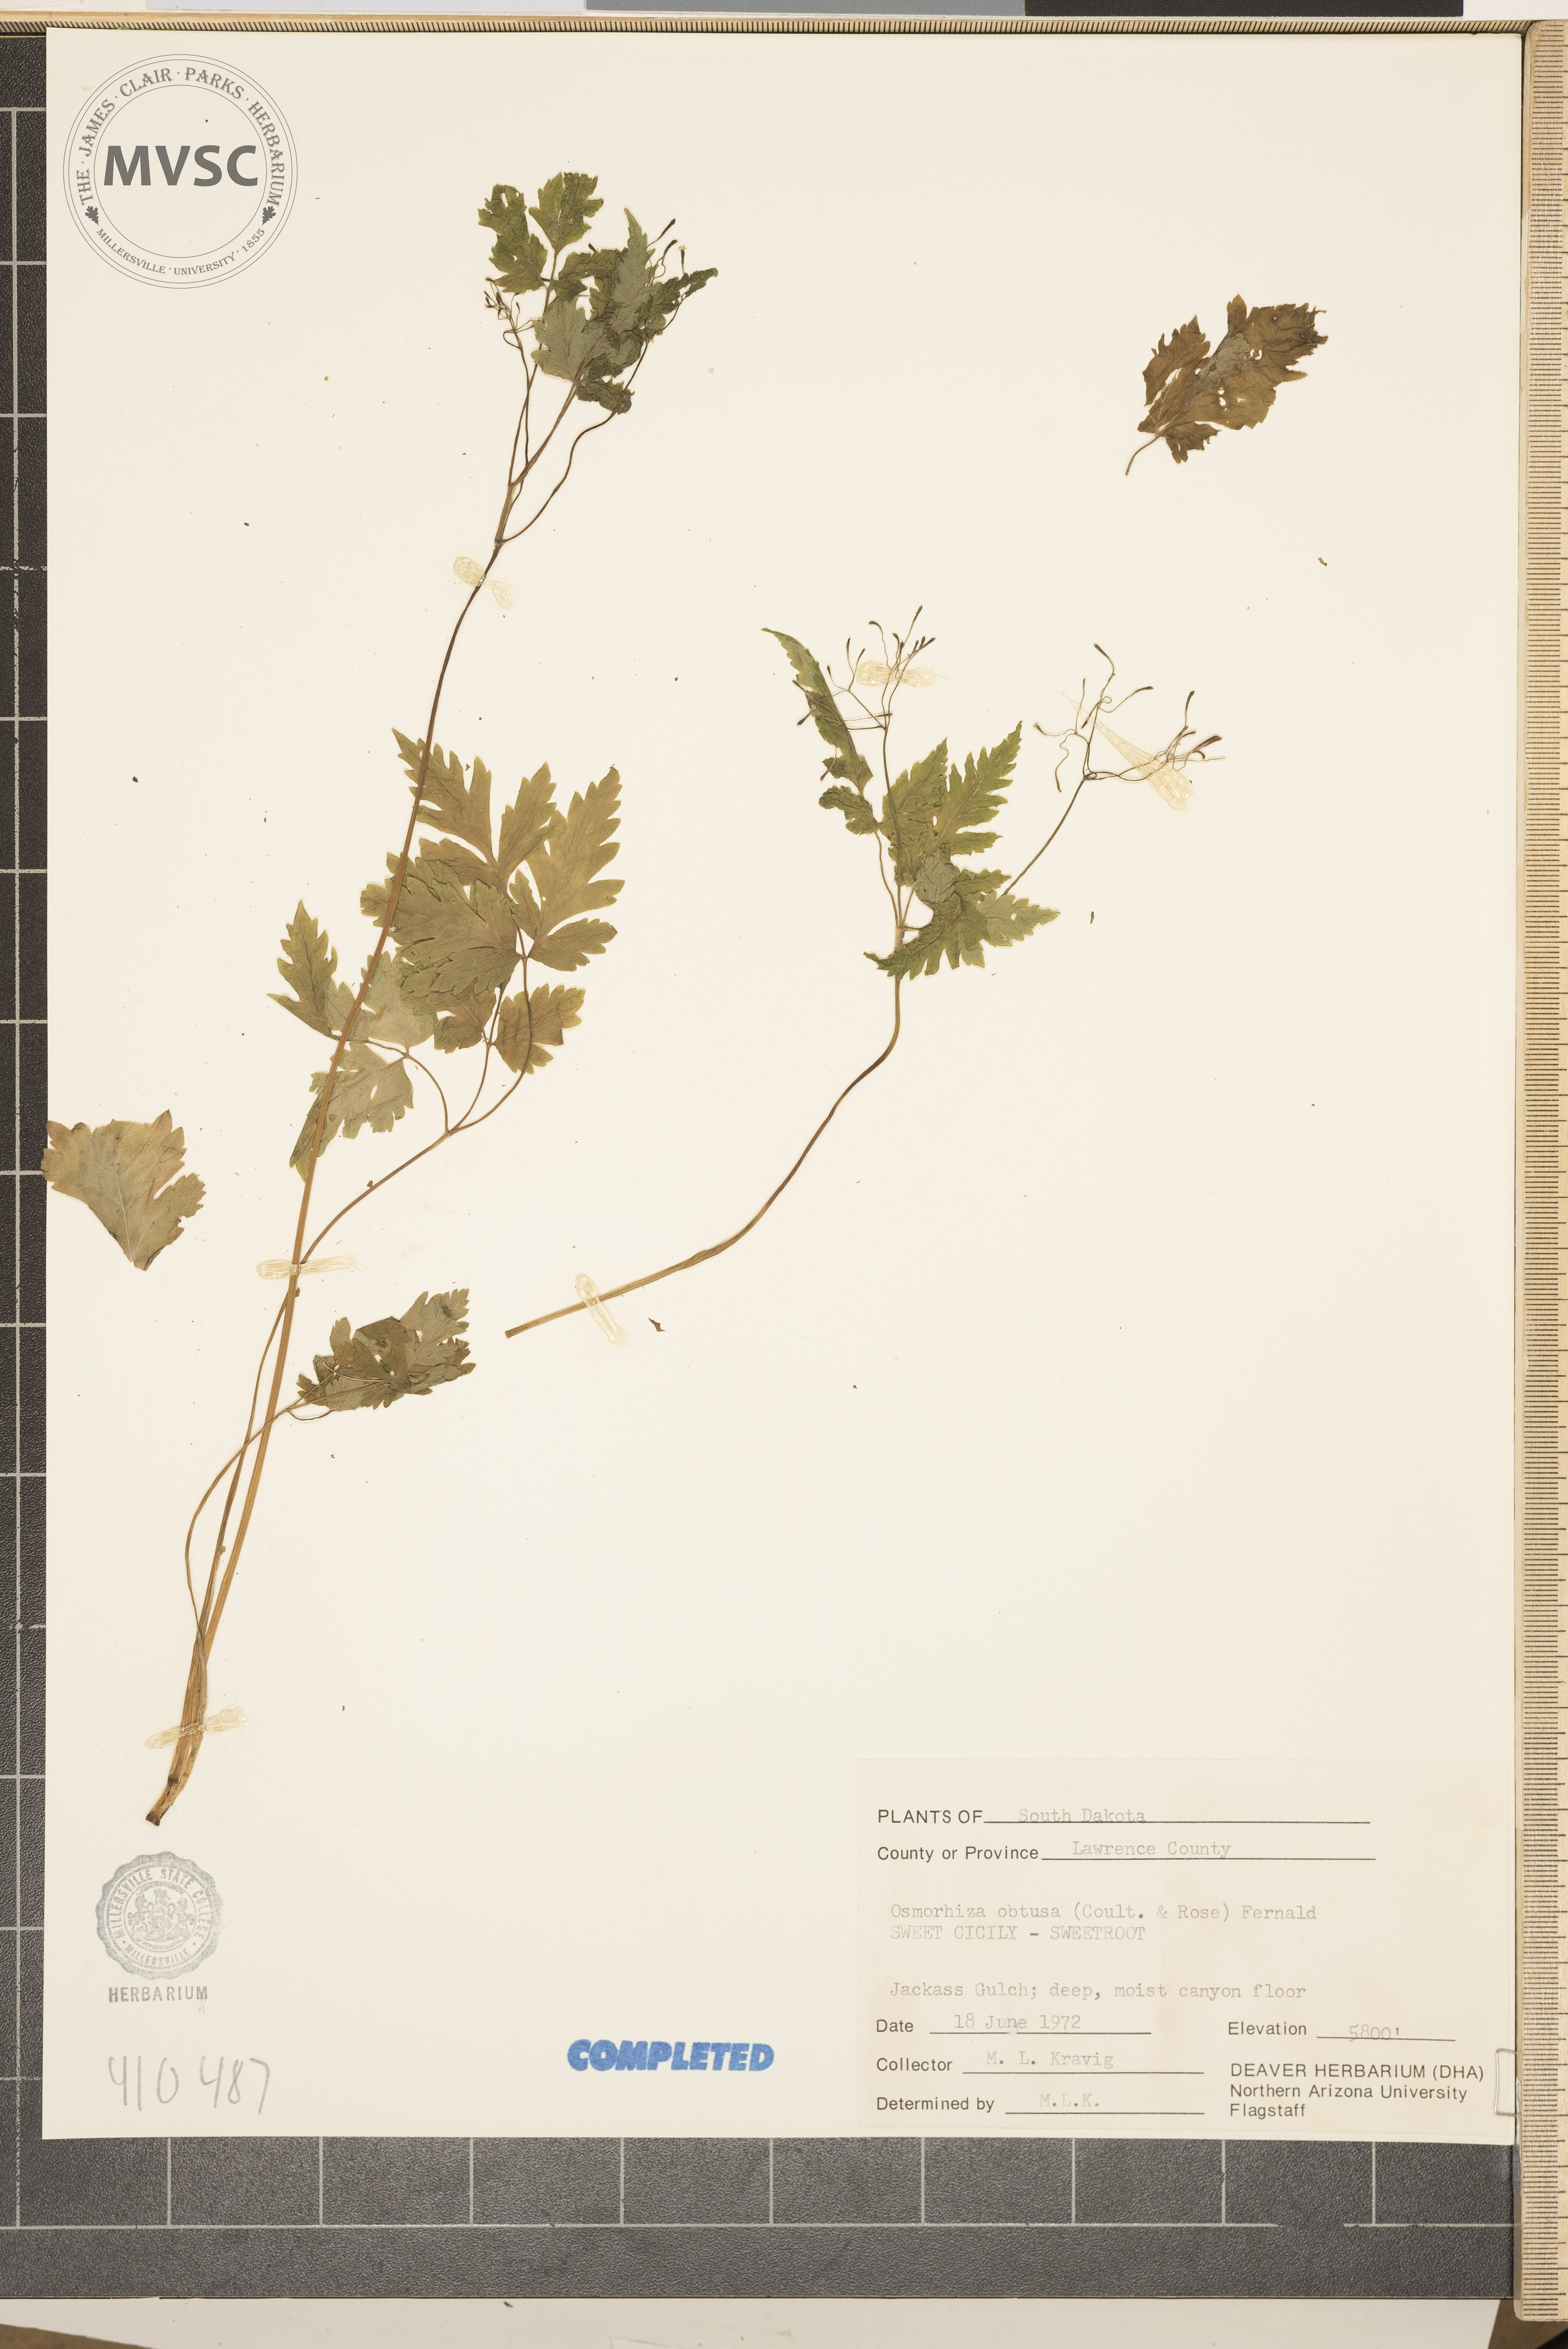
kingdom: Plantae
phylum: Tracheophyta
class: Magnoliopsida
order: Apiales
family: Apiaceae
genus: Osmorhiza
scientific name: Osmorhiza depauperata
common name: Blunt sweet cicely
